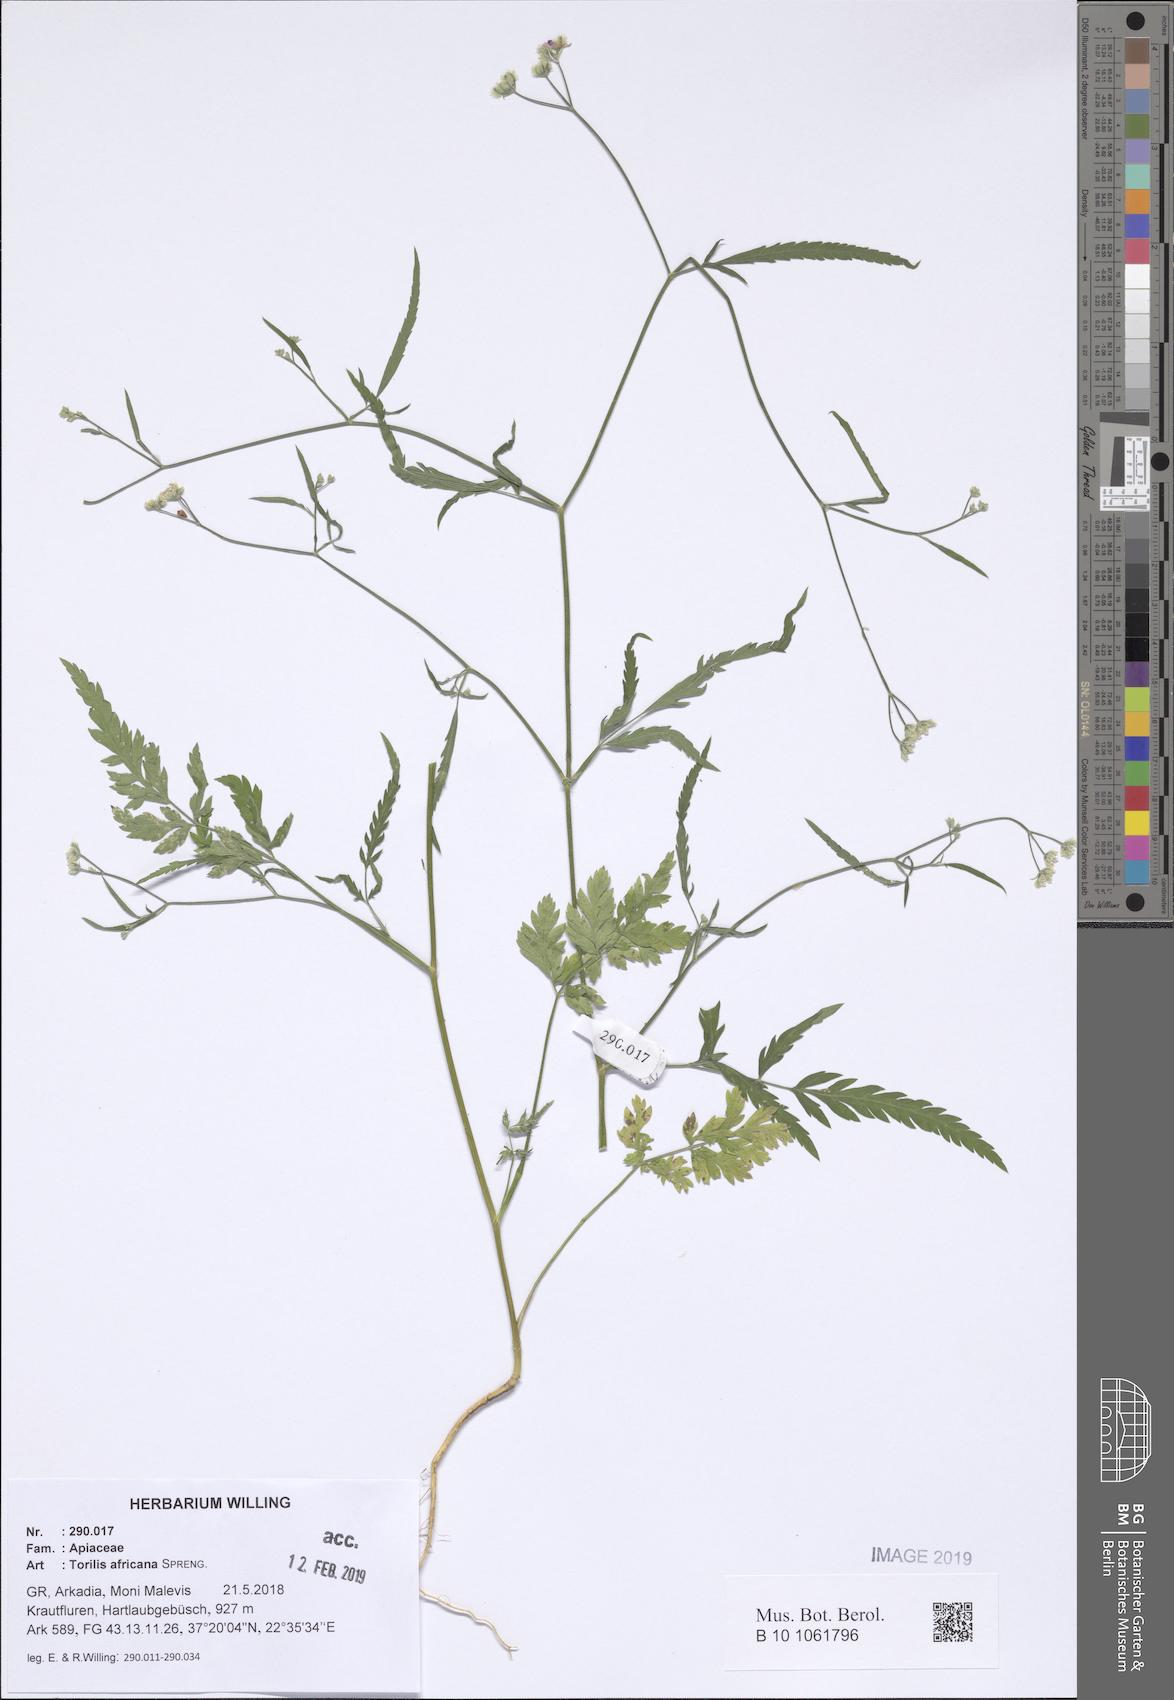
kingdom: Plantae
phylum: Tracheophyta
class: Magnoliopsida
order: Apiales
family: Apiaceae
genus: Torilis
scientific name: Torilis africana
